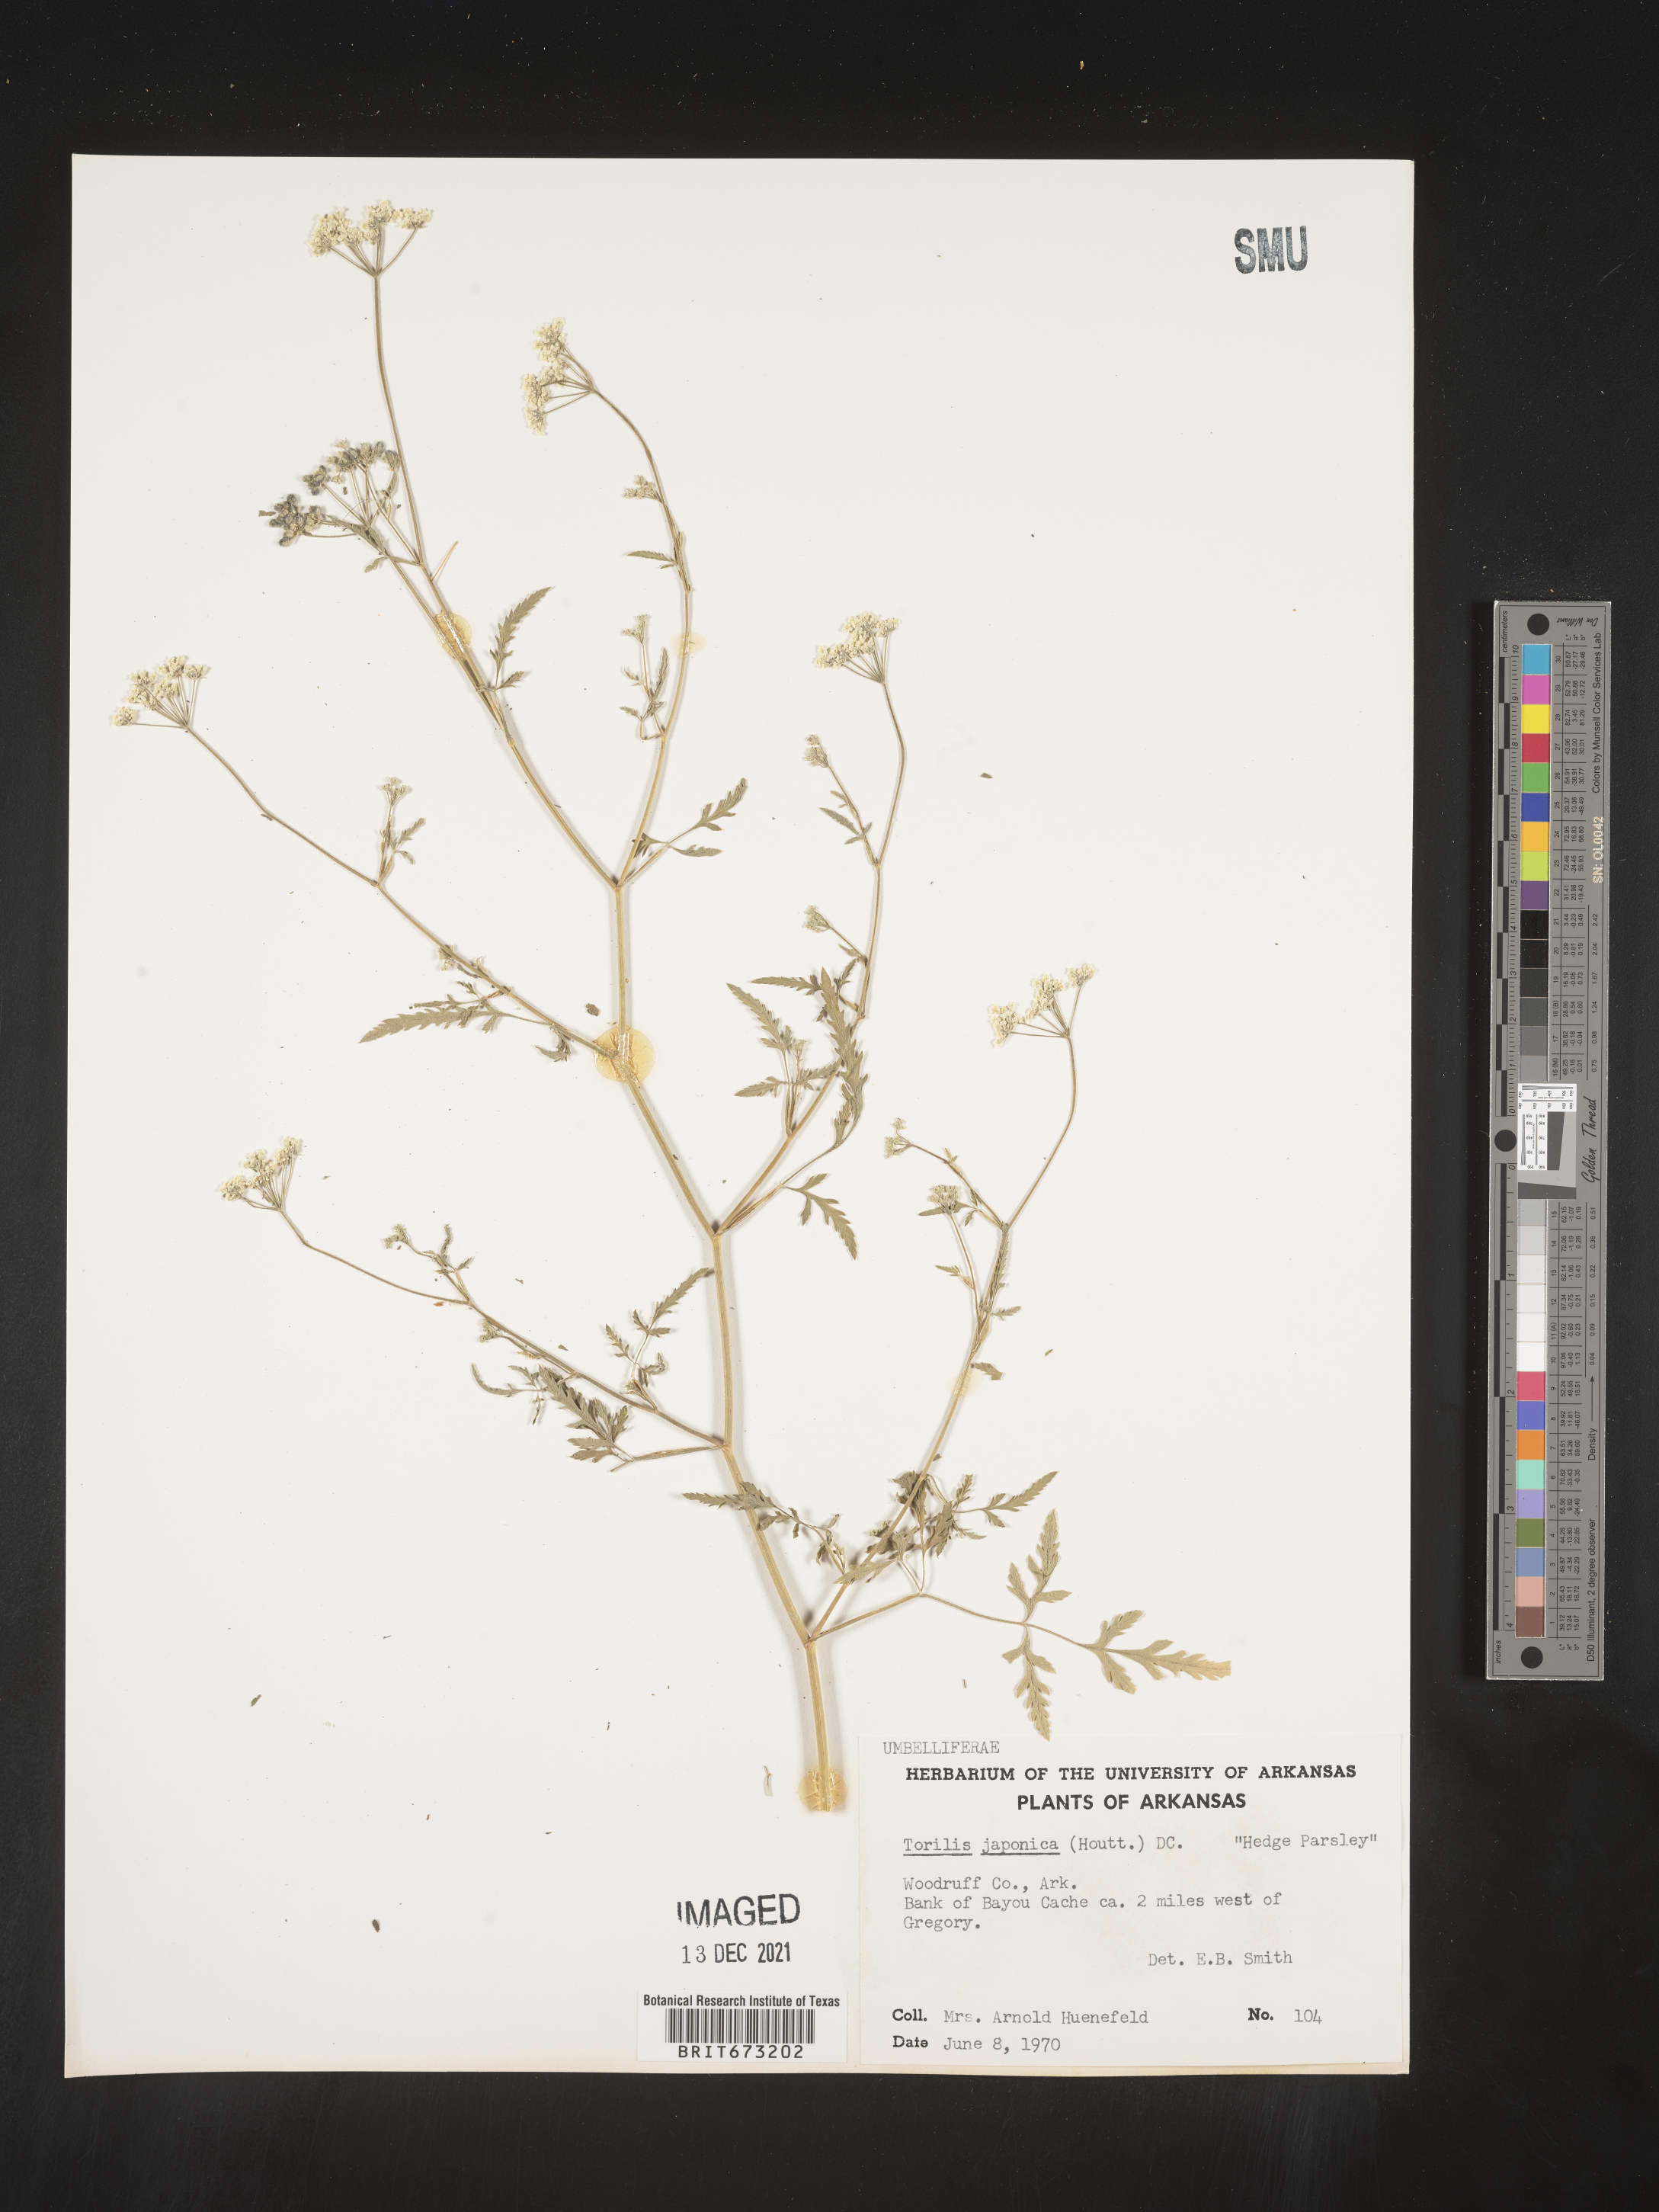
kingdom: Plantae
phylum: Tracheophyta
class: Magnoliopsida
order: Apiales
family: Apiaceae
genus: Torilis
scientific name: Torilis arvensis
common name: Spreading hedge-parsley
